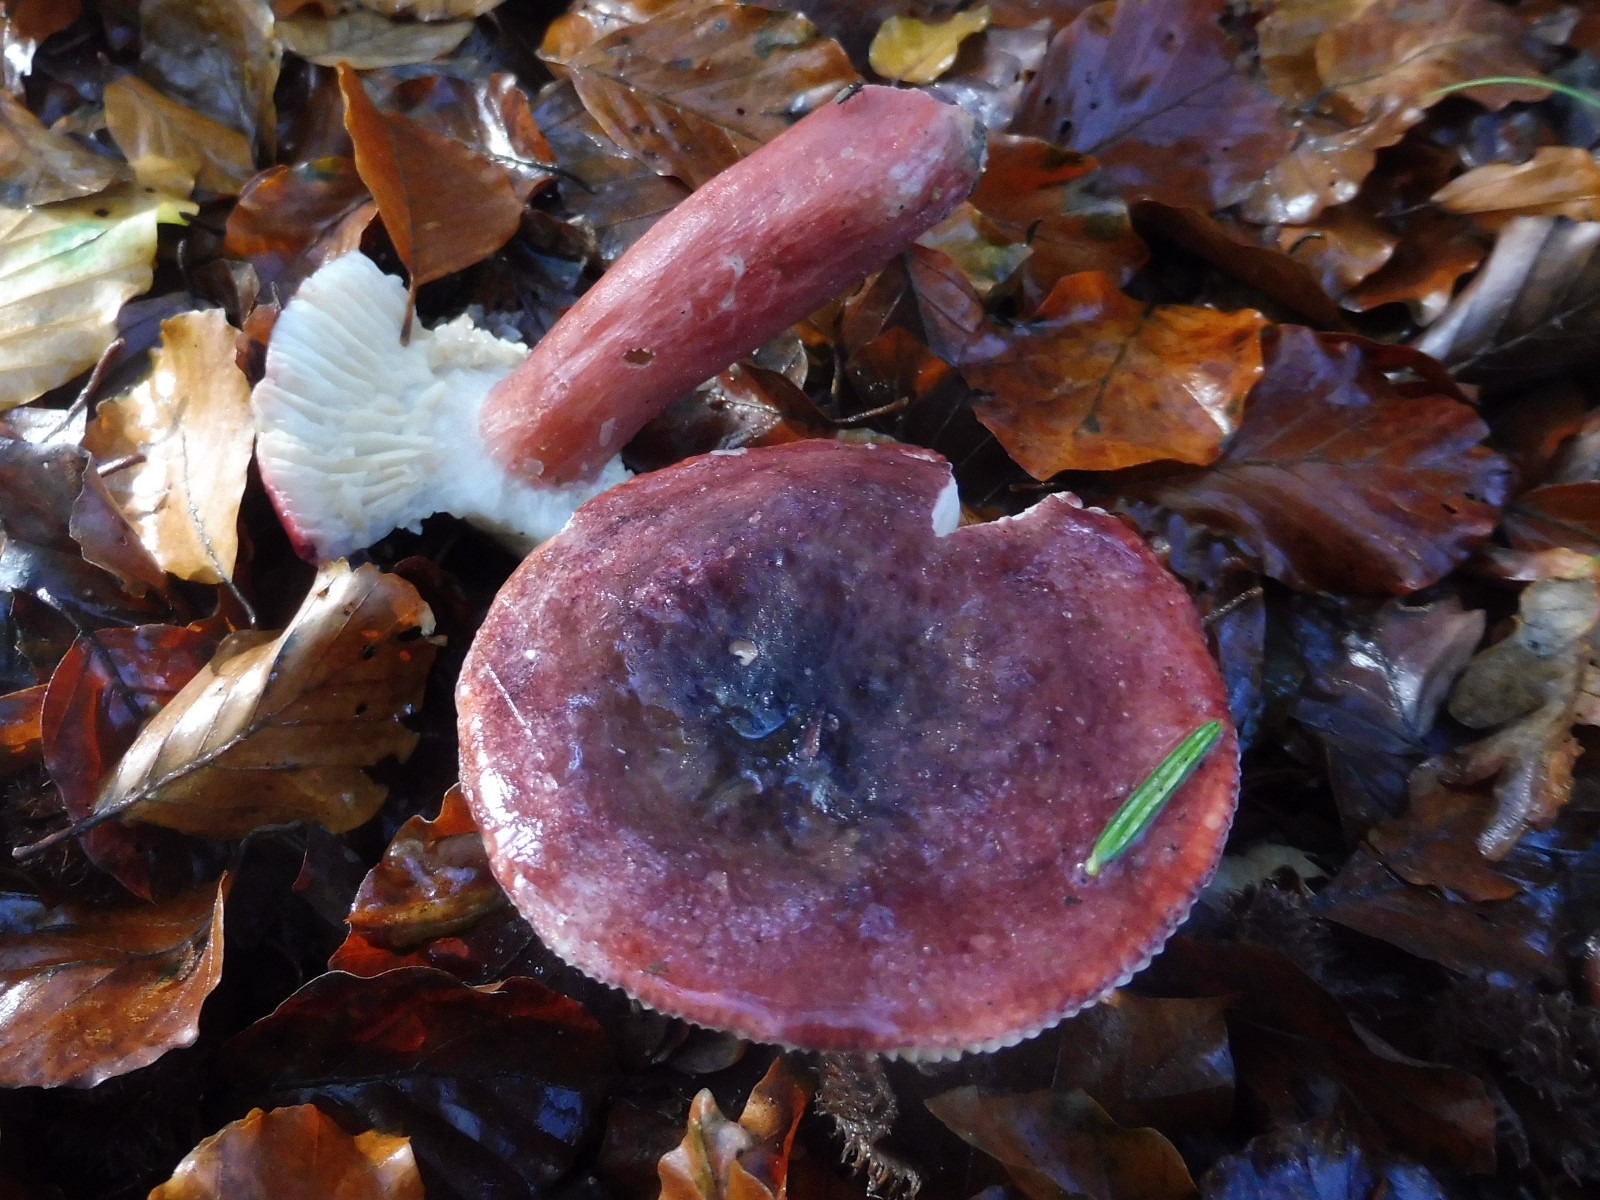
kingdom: Fungi
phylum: Basidiomycota
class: Agaricomycetes
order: Russulales
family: Russulaceae
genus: Russula
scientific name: Russula queletii
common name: Quélets skørhat
